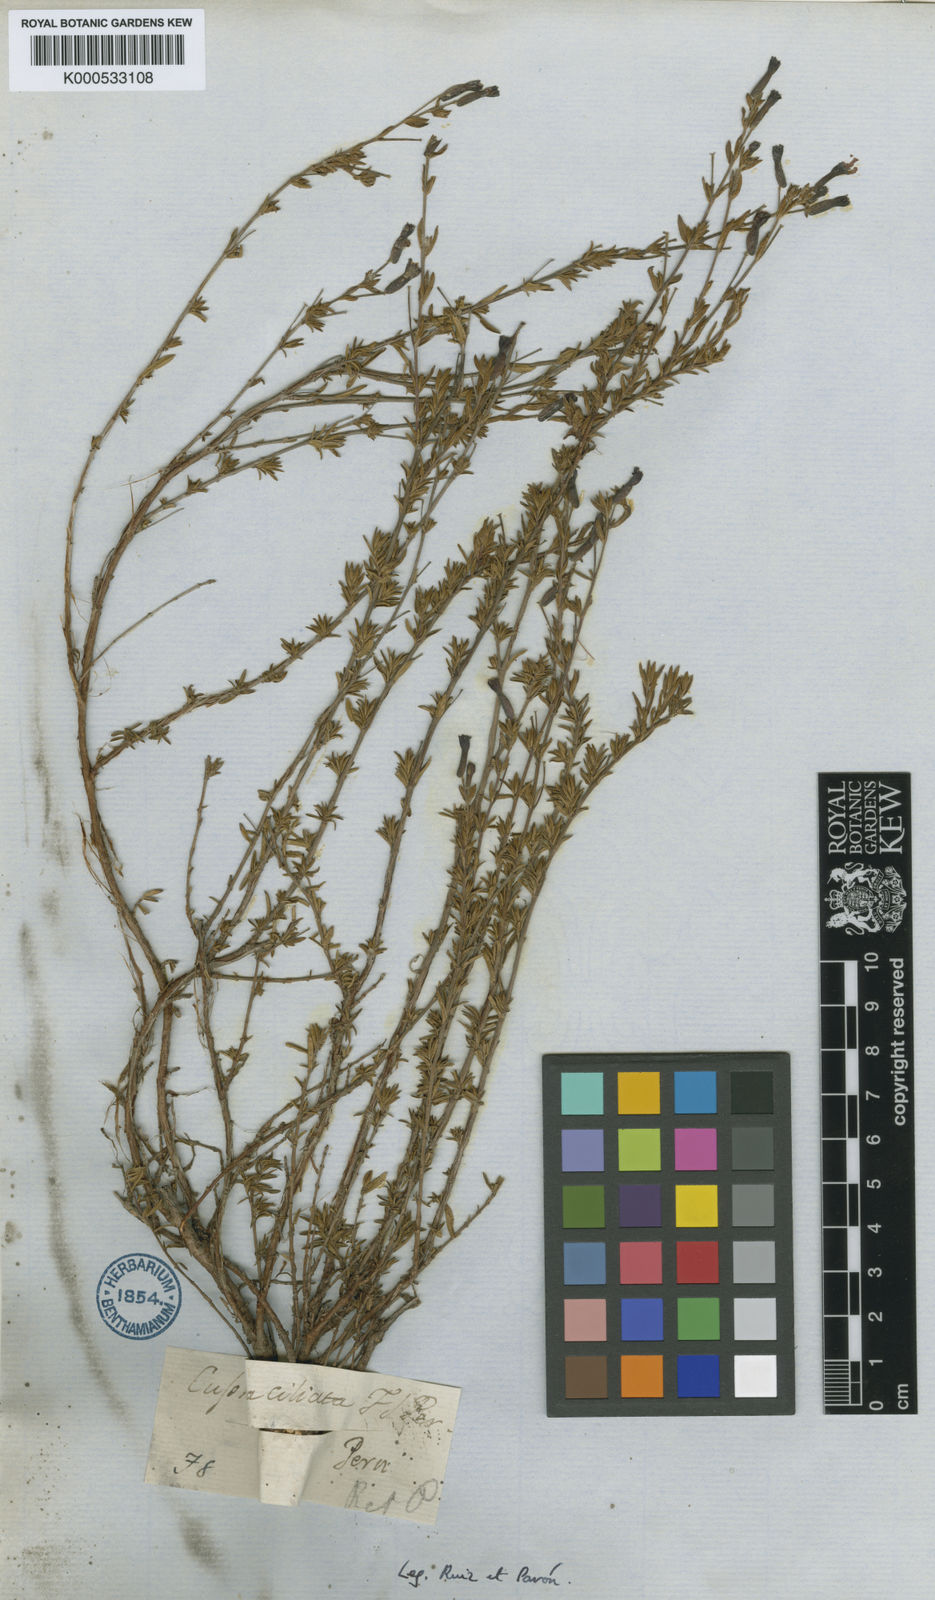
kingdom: Plantae
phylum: Tracheophyta
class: Magnoliopsida
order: Myrtales
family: Lythraceae
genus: Cuphea
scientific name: Cuphea ciliata
